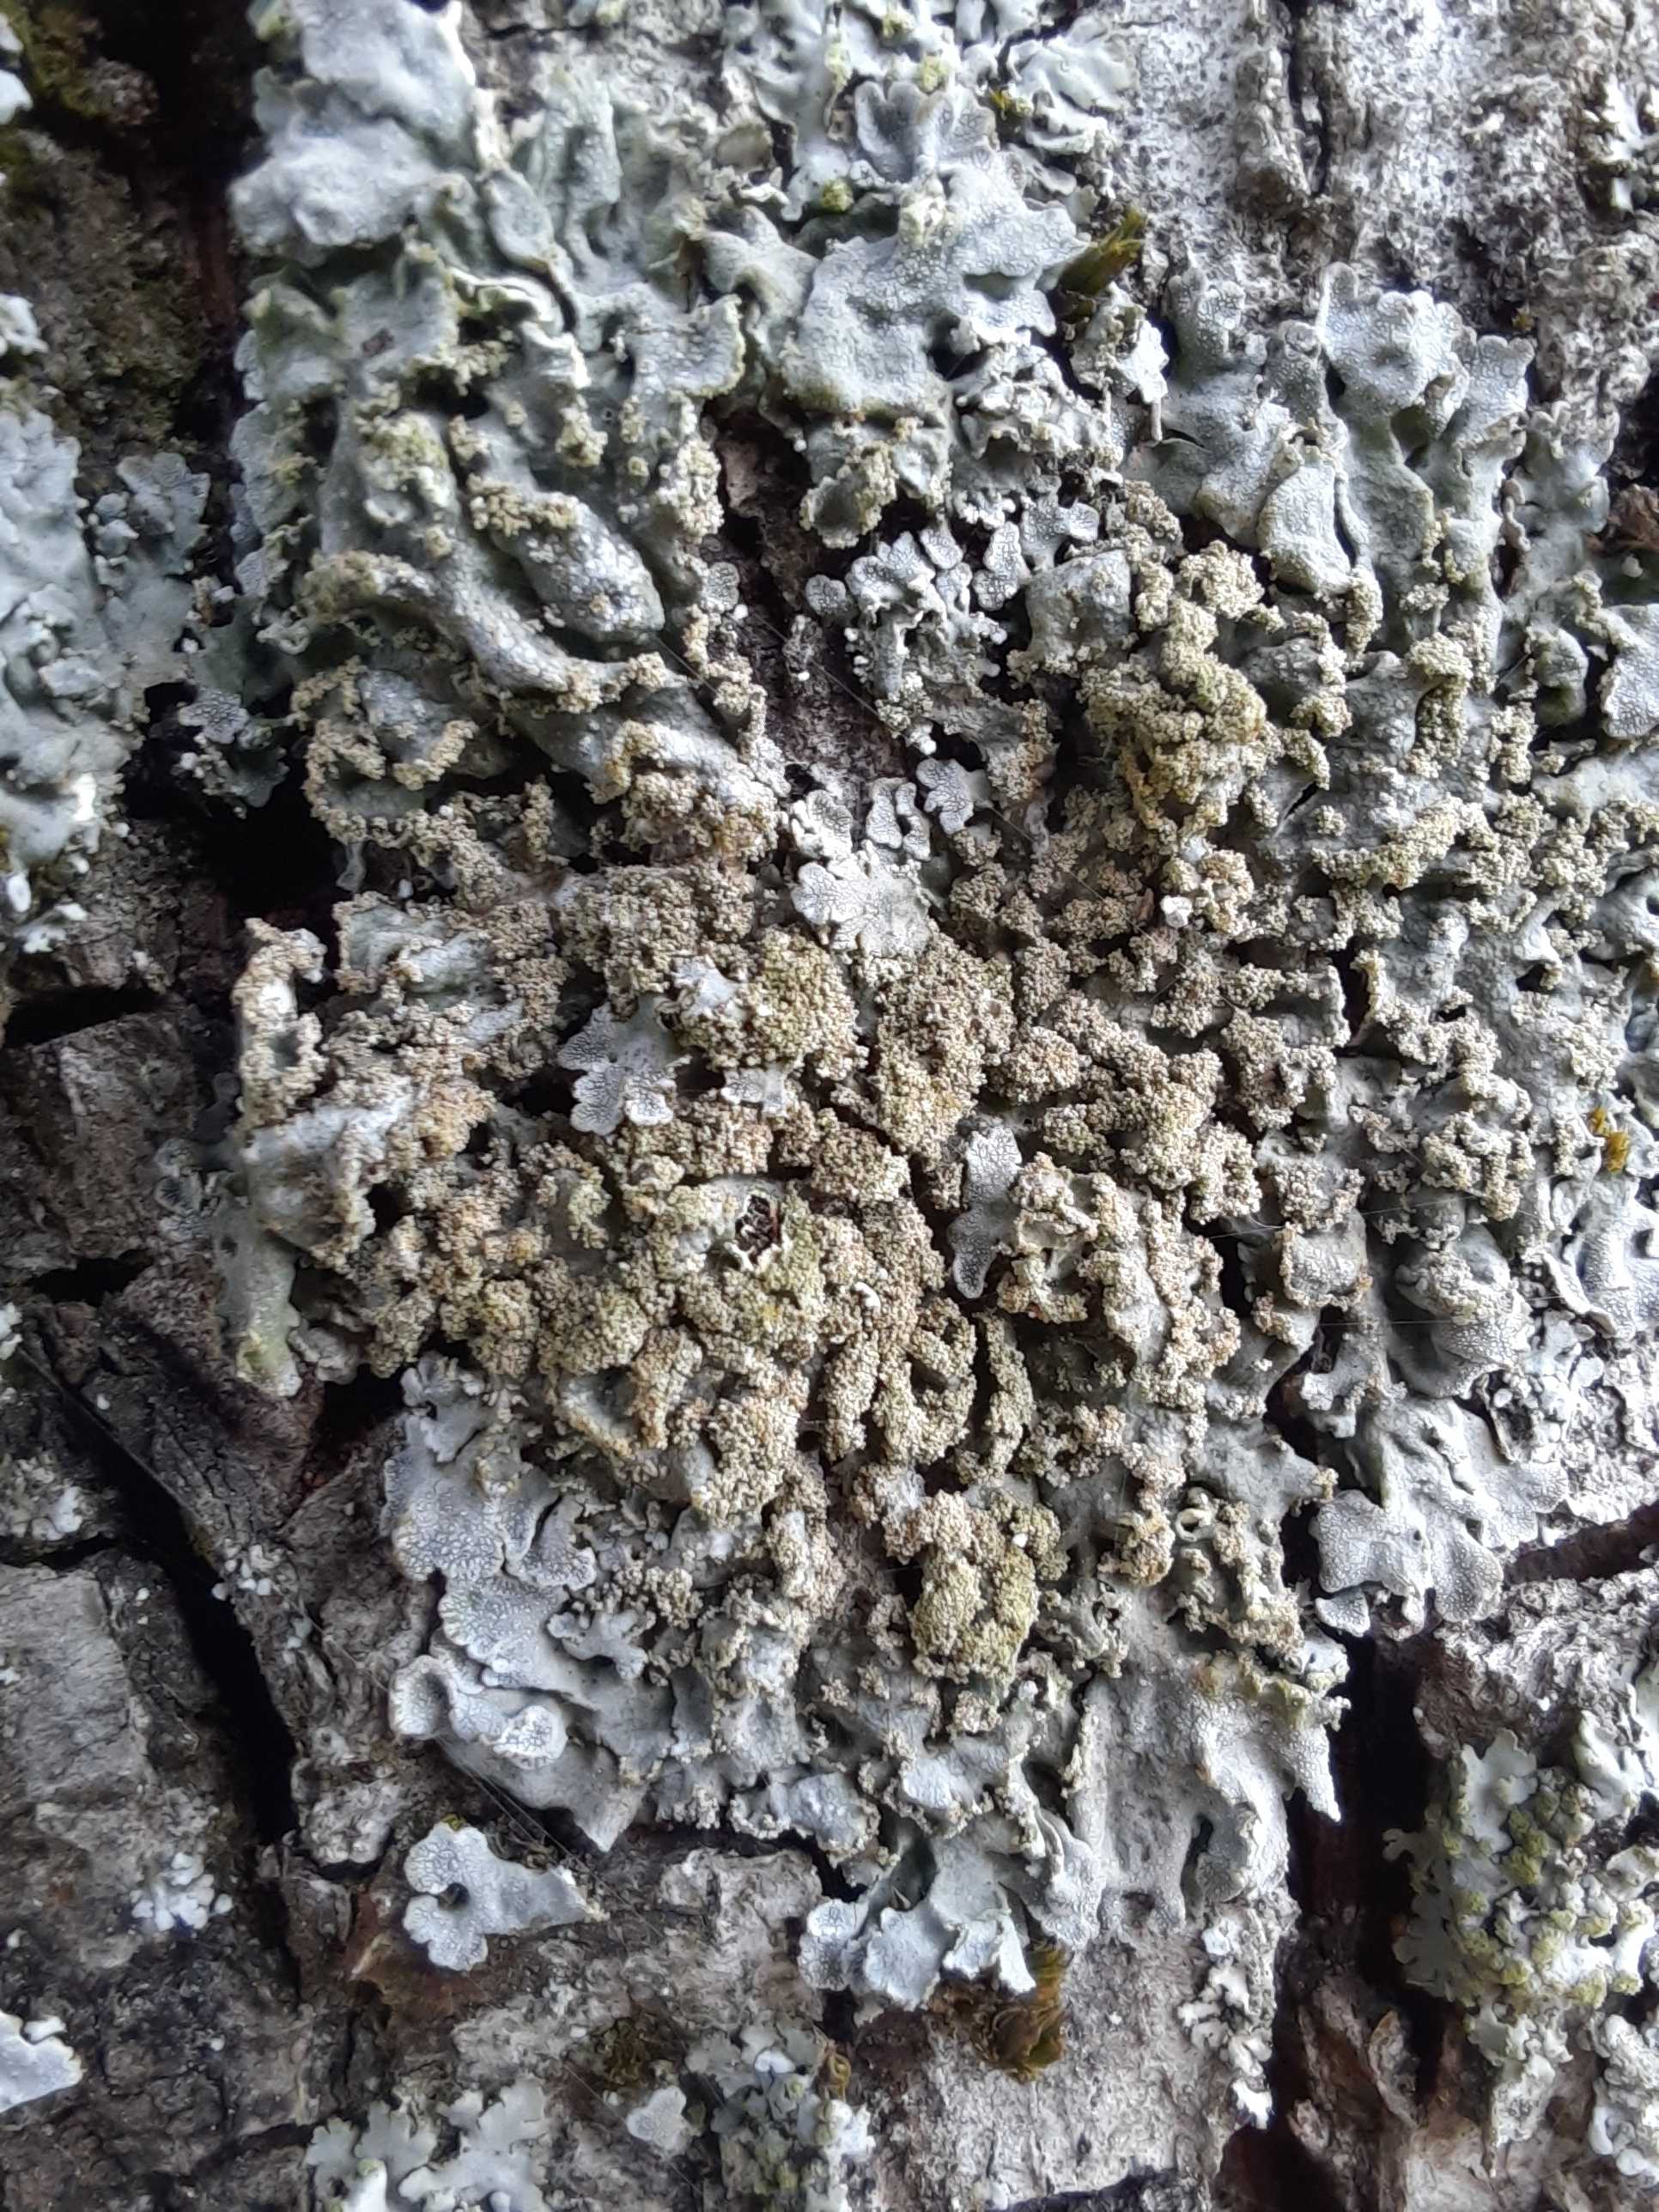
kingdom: Fungi
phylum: Ascomycota
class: Lecanoromycetes
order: Caliciales
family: Physciaceae
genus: Physconia
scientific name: Physconia
